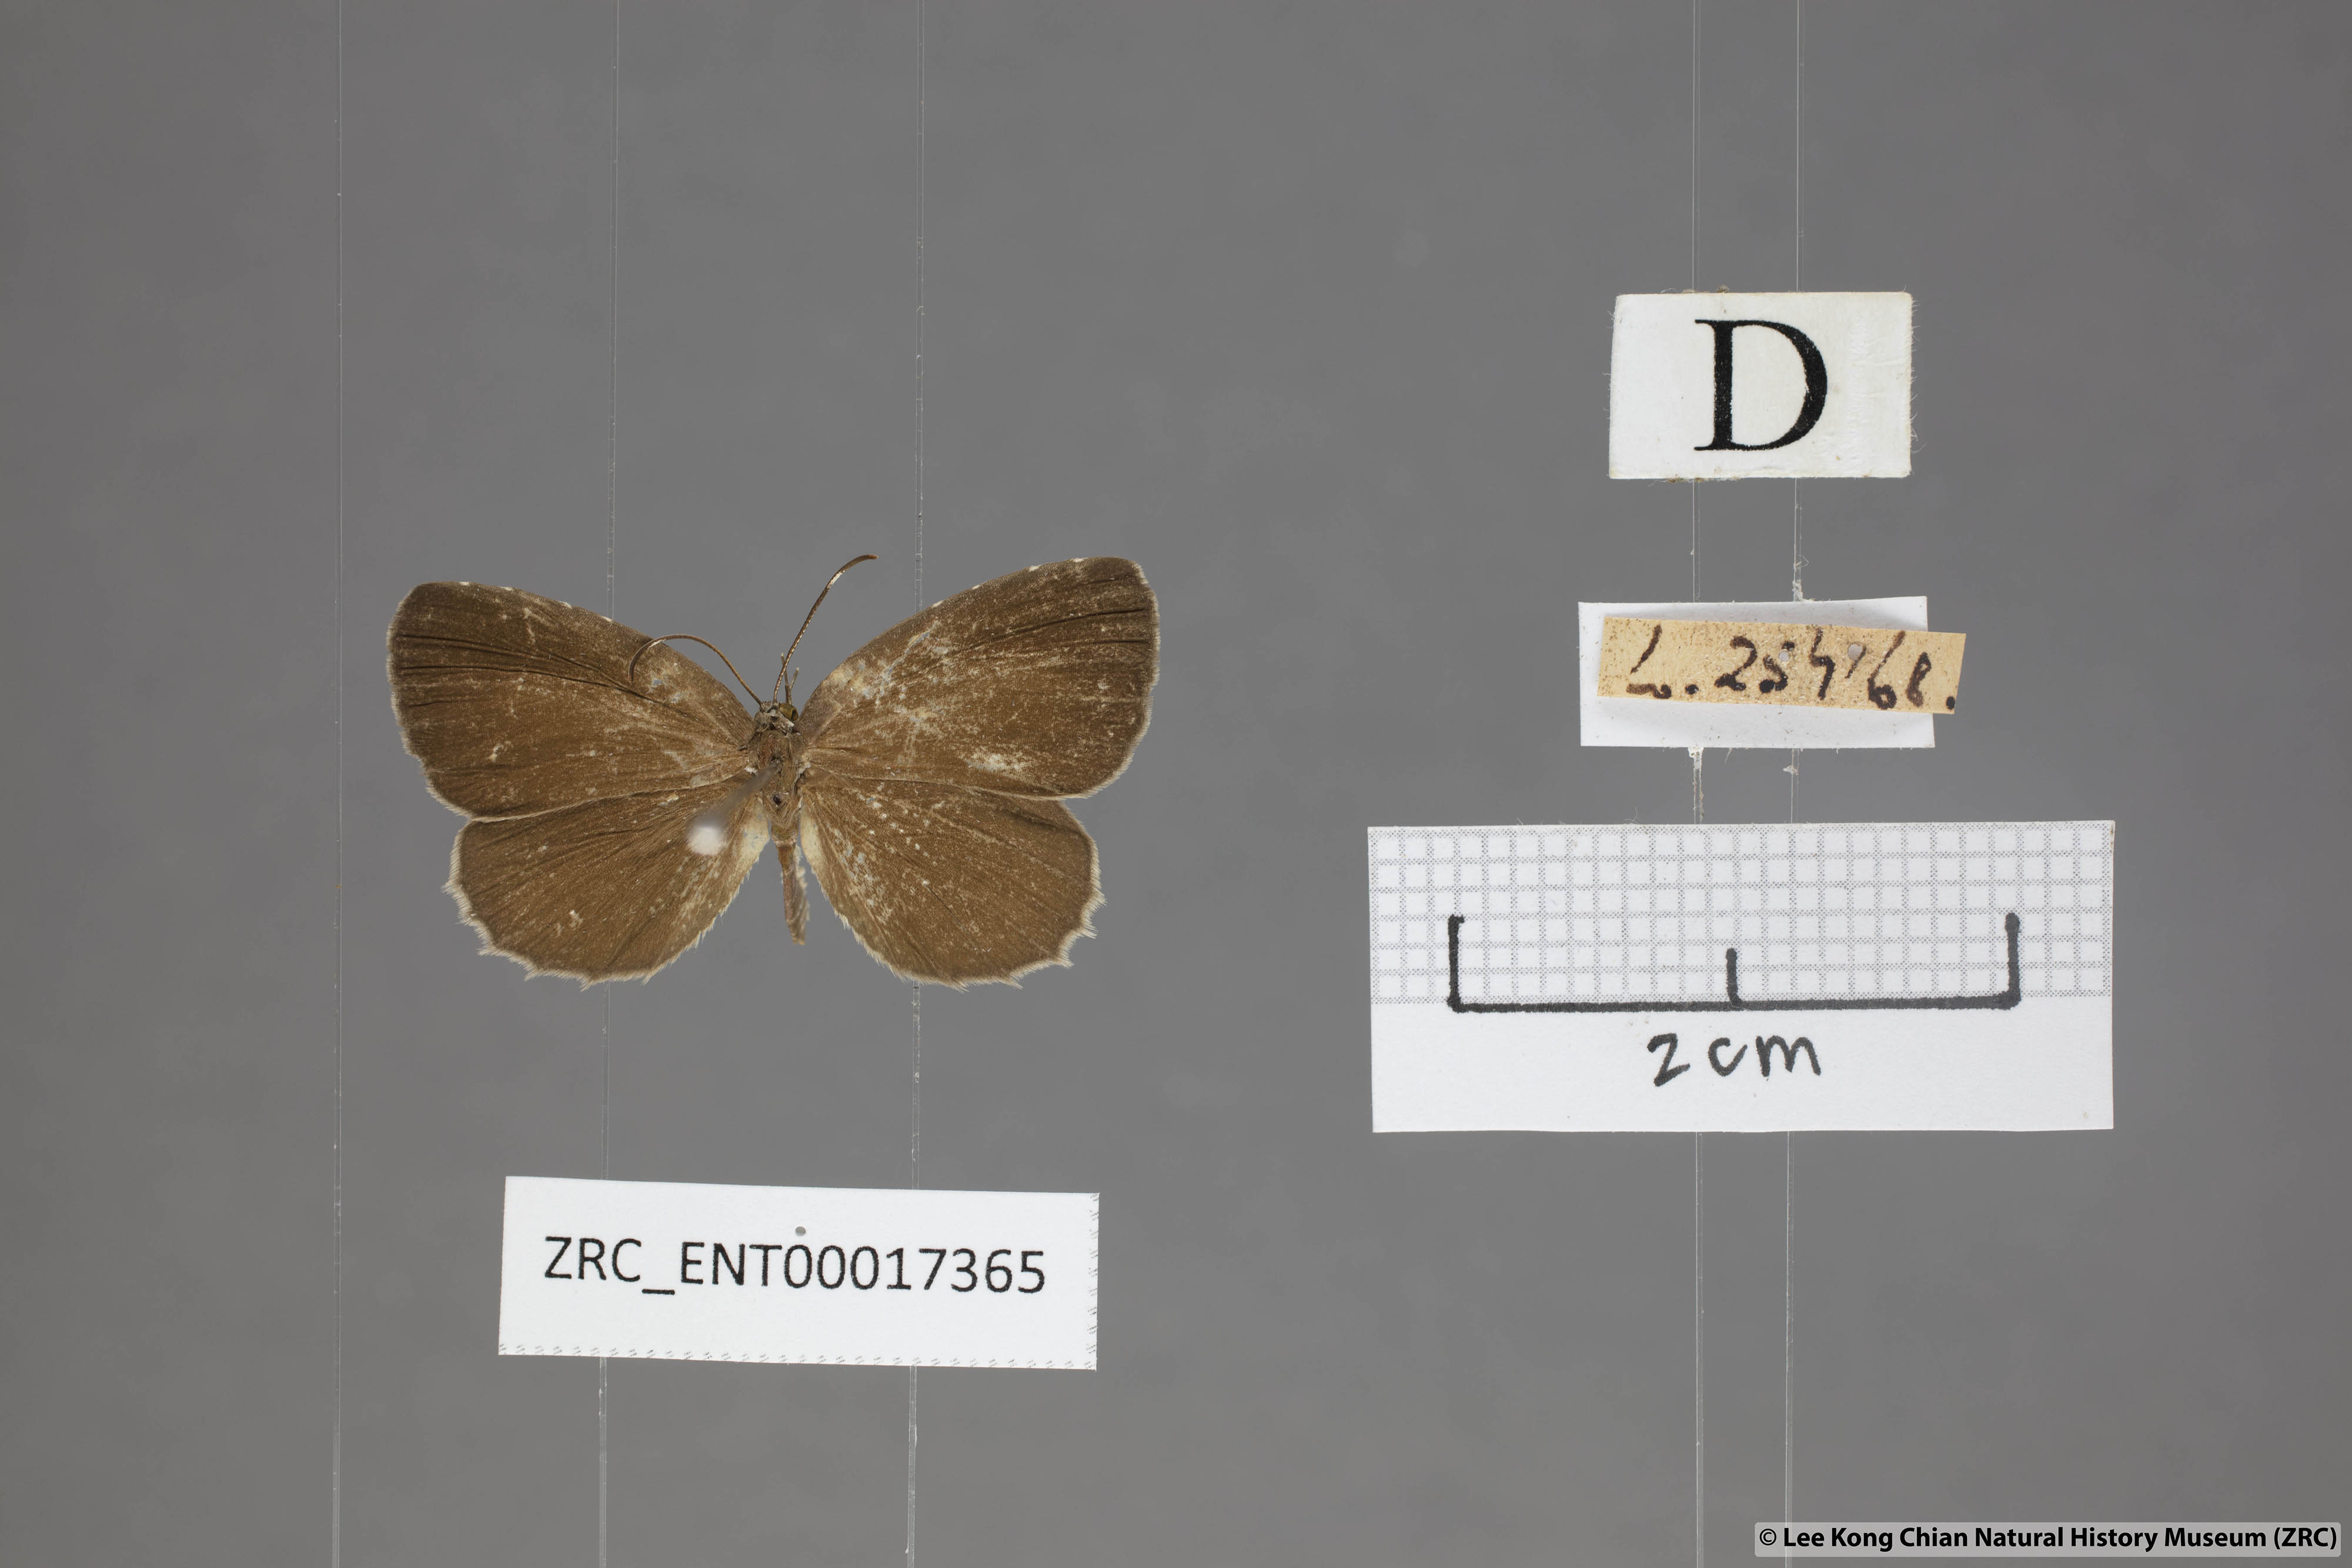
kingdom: Animalia
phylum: Arthropoda
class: Insecta
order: Lepidoptera
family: Lycaenidae
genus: Allotinus
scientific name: Allotinus unicolor
